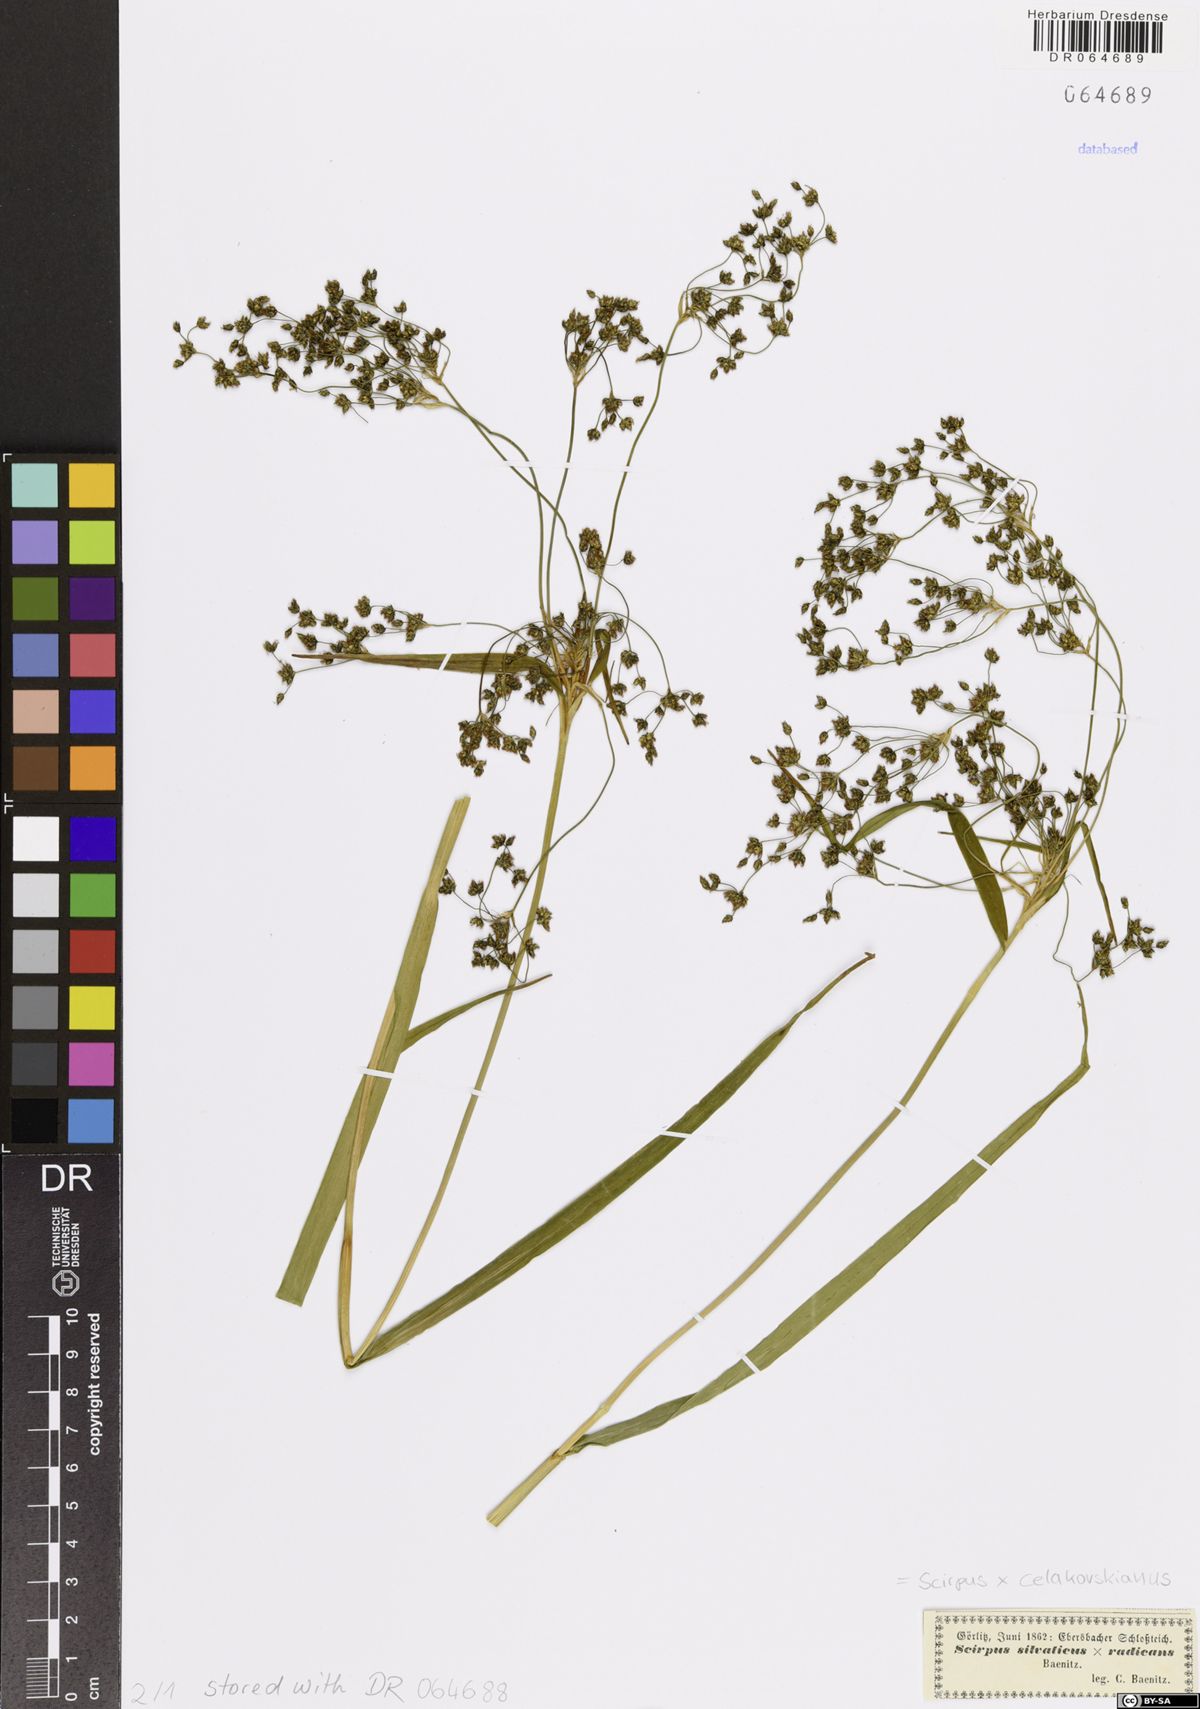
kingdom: Plantae
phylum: Tracheophyta
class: Liliopsida
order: Poales
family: Cyperaceae
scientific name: Cyperaceae
